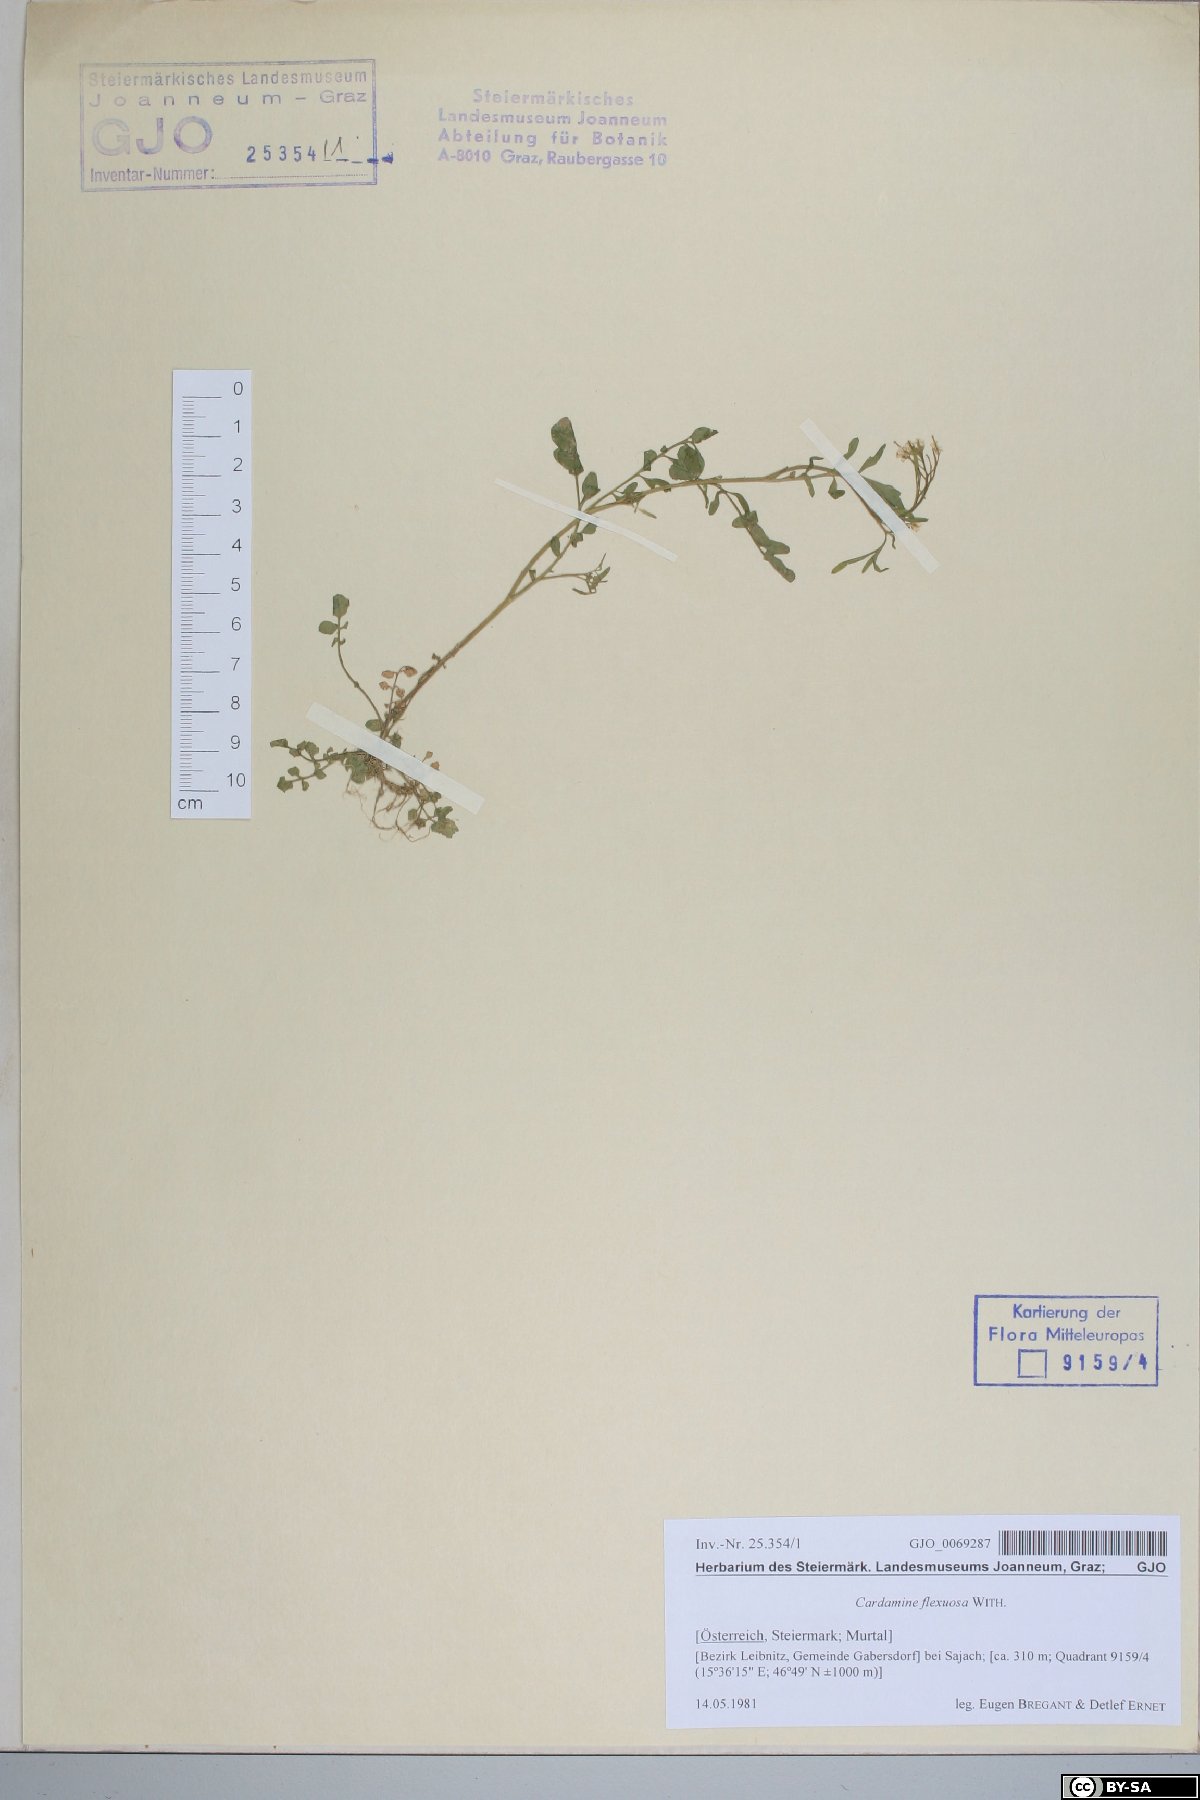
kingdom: Plantae
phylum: Tracheophyta
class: Magnoliopsida
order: Brassicales
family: Brassicaceae
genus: Cardamine
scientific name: Cardamine flexuosa
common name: Woodland bittercress
